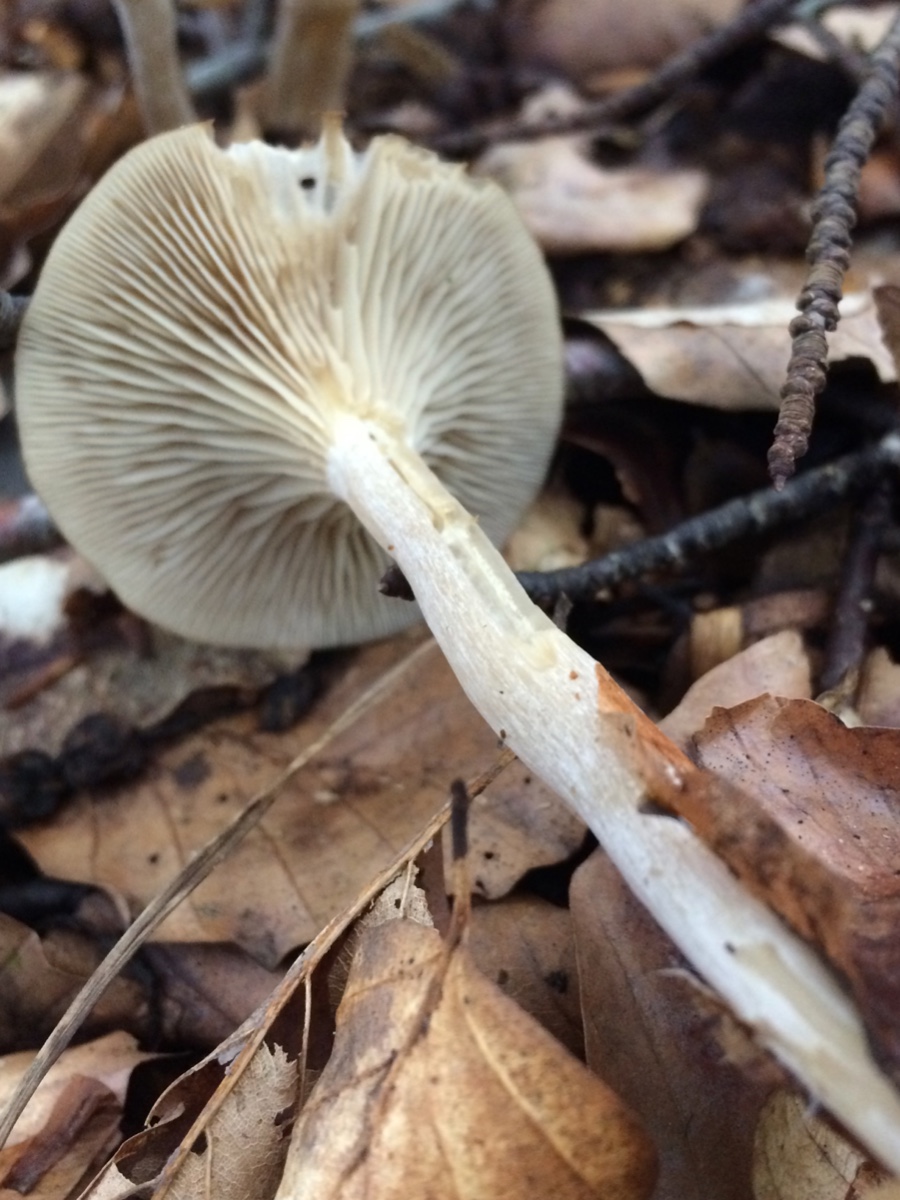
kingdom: Fungi
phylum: Basidiomycota
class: Agaricomycetes
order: Agaricales
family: Tricholomataceae
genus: Clitocybe
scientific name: Clitocybe subspadicea
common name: nitrøs tragthat
